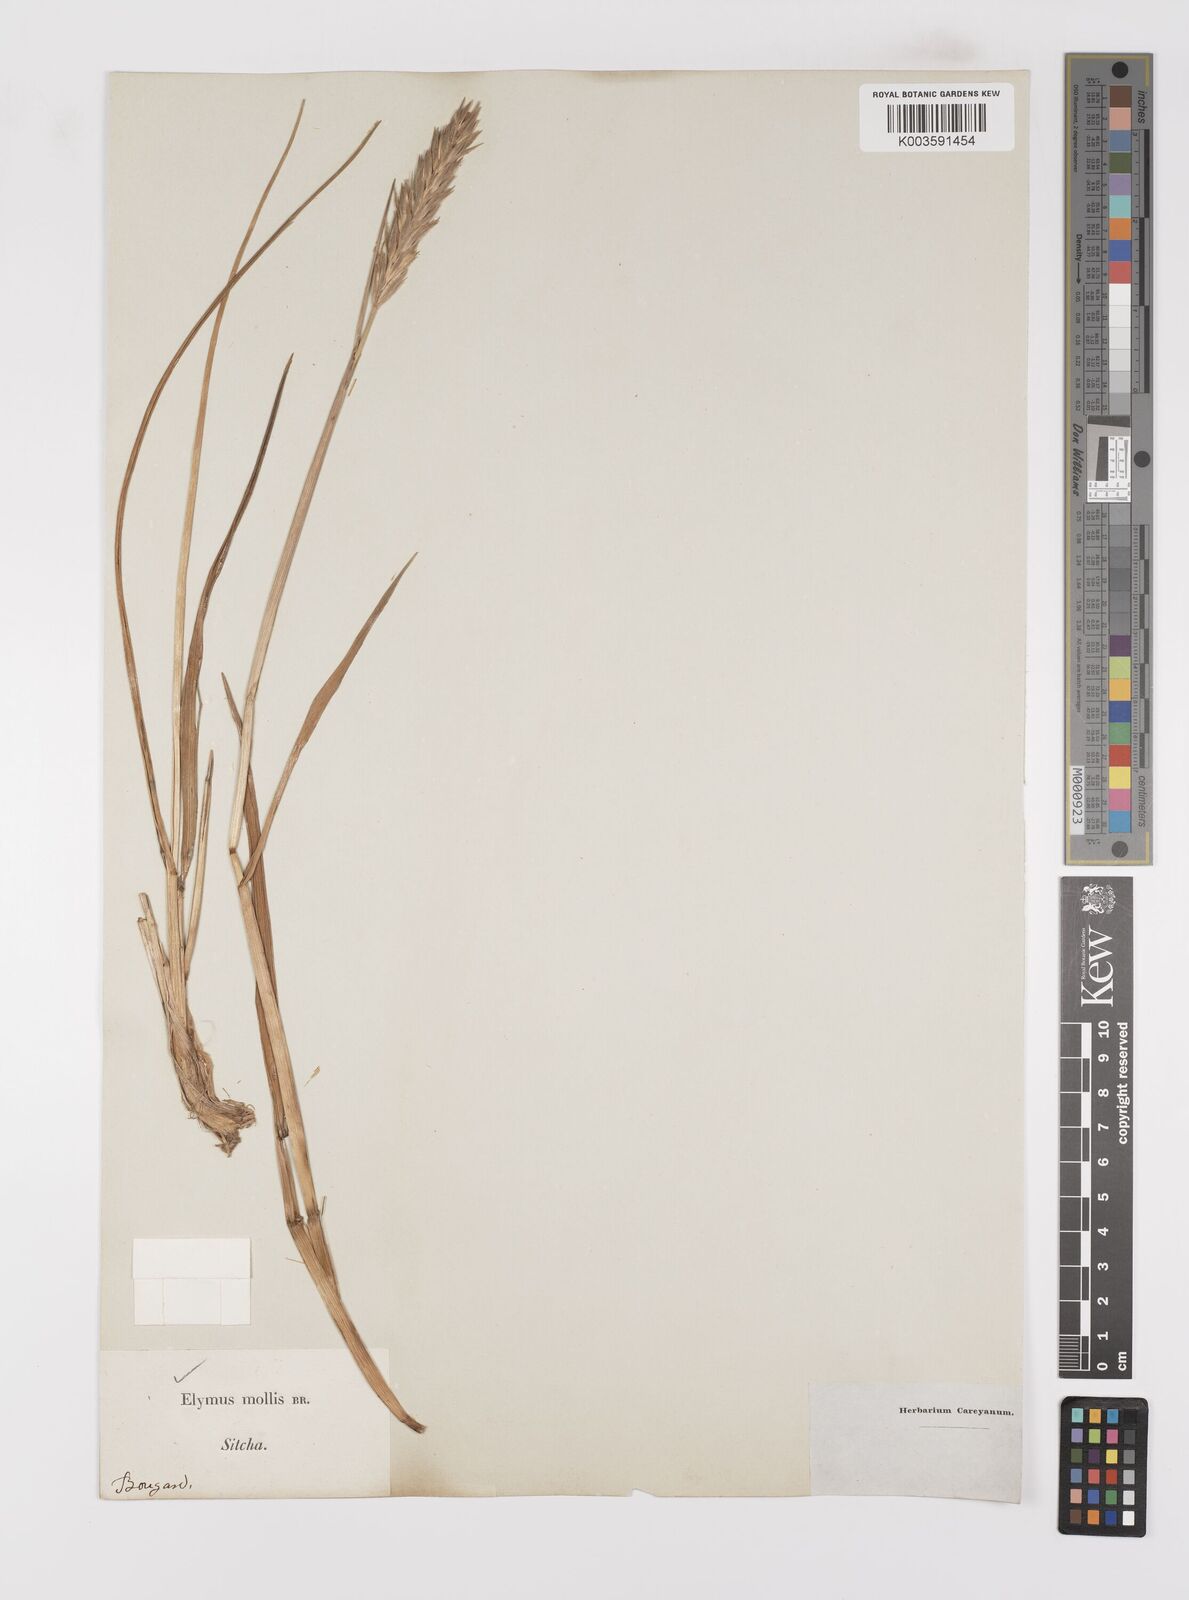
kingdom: Plantae
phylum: Tracheophyta
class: Liliopsida
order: Poales
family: Poaceae
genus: Leymus
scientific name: Leymus mollis
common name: American dune grass
